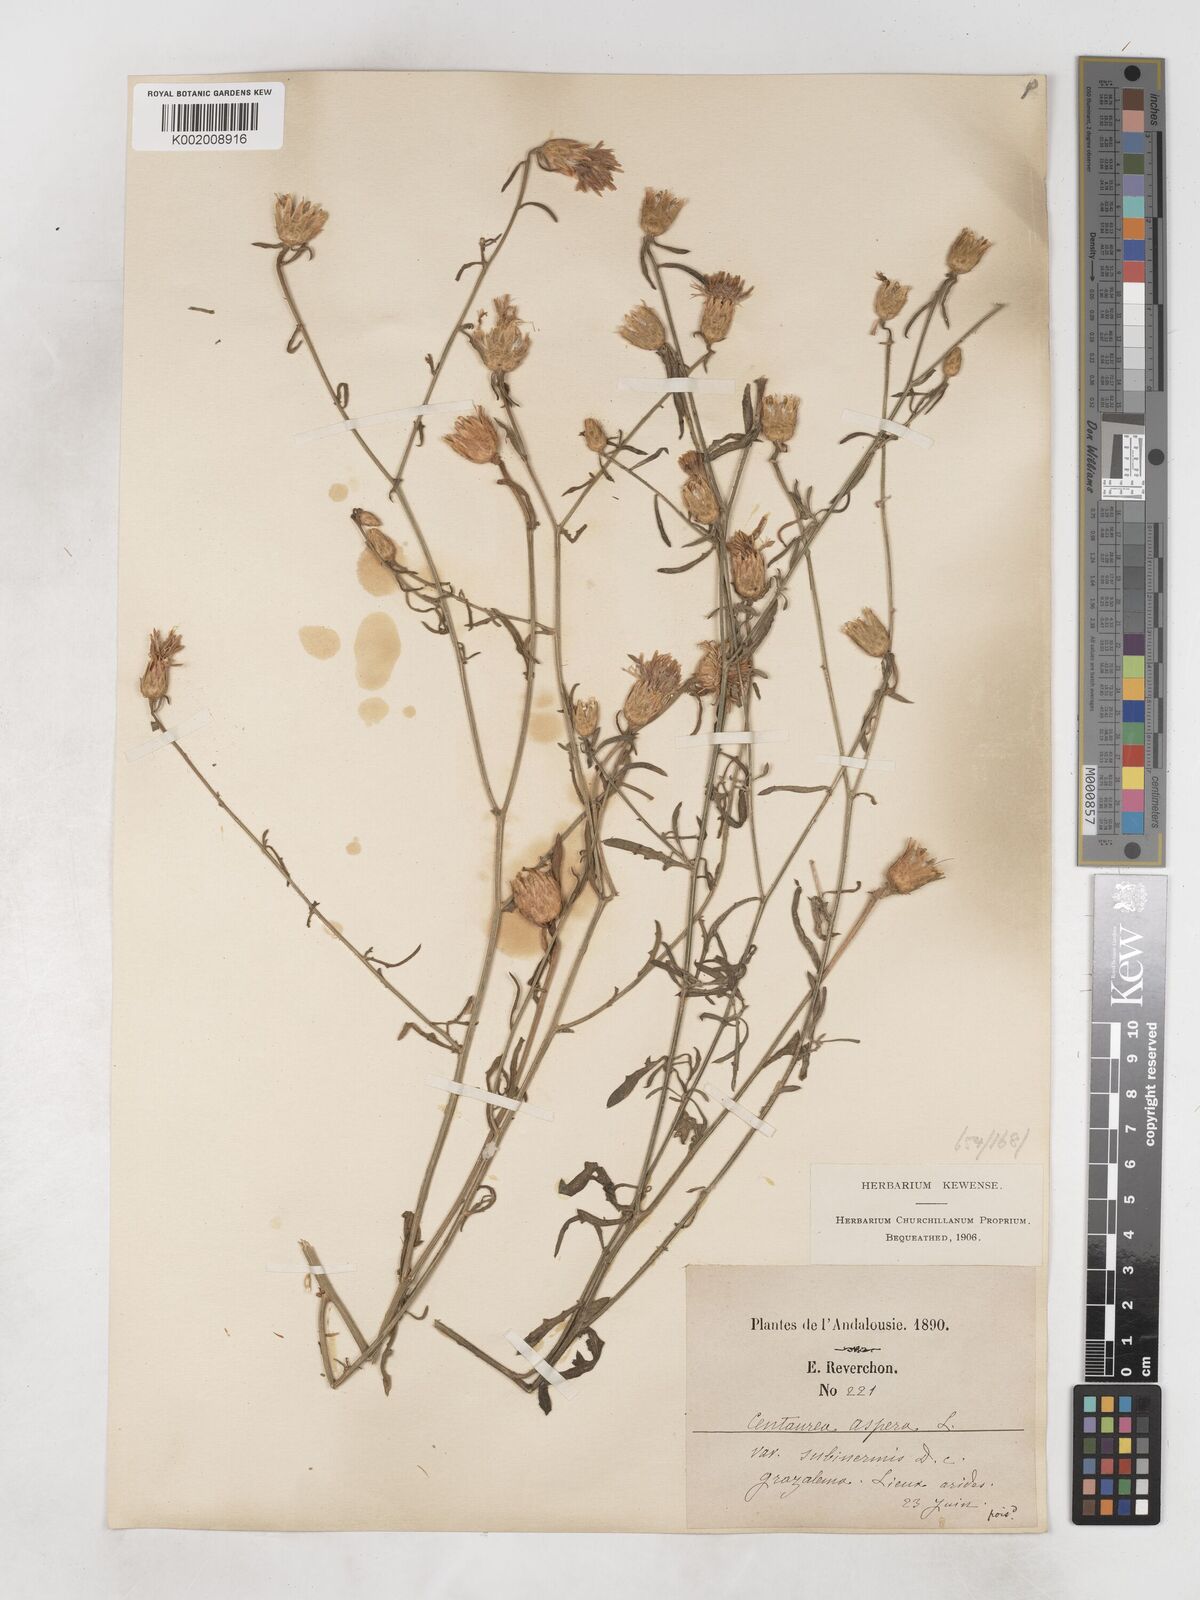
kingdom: Plantae
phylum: Tracheophyta
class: Magnoliopsida
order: Asterales
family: Asteraceae
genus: Centaurea
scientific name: Centaurea aspera
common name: Rough star-thistle
